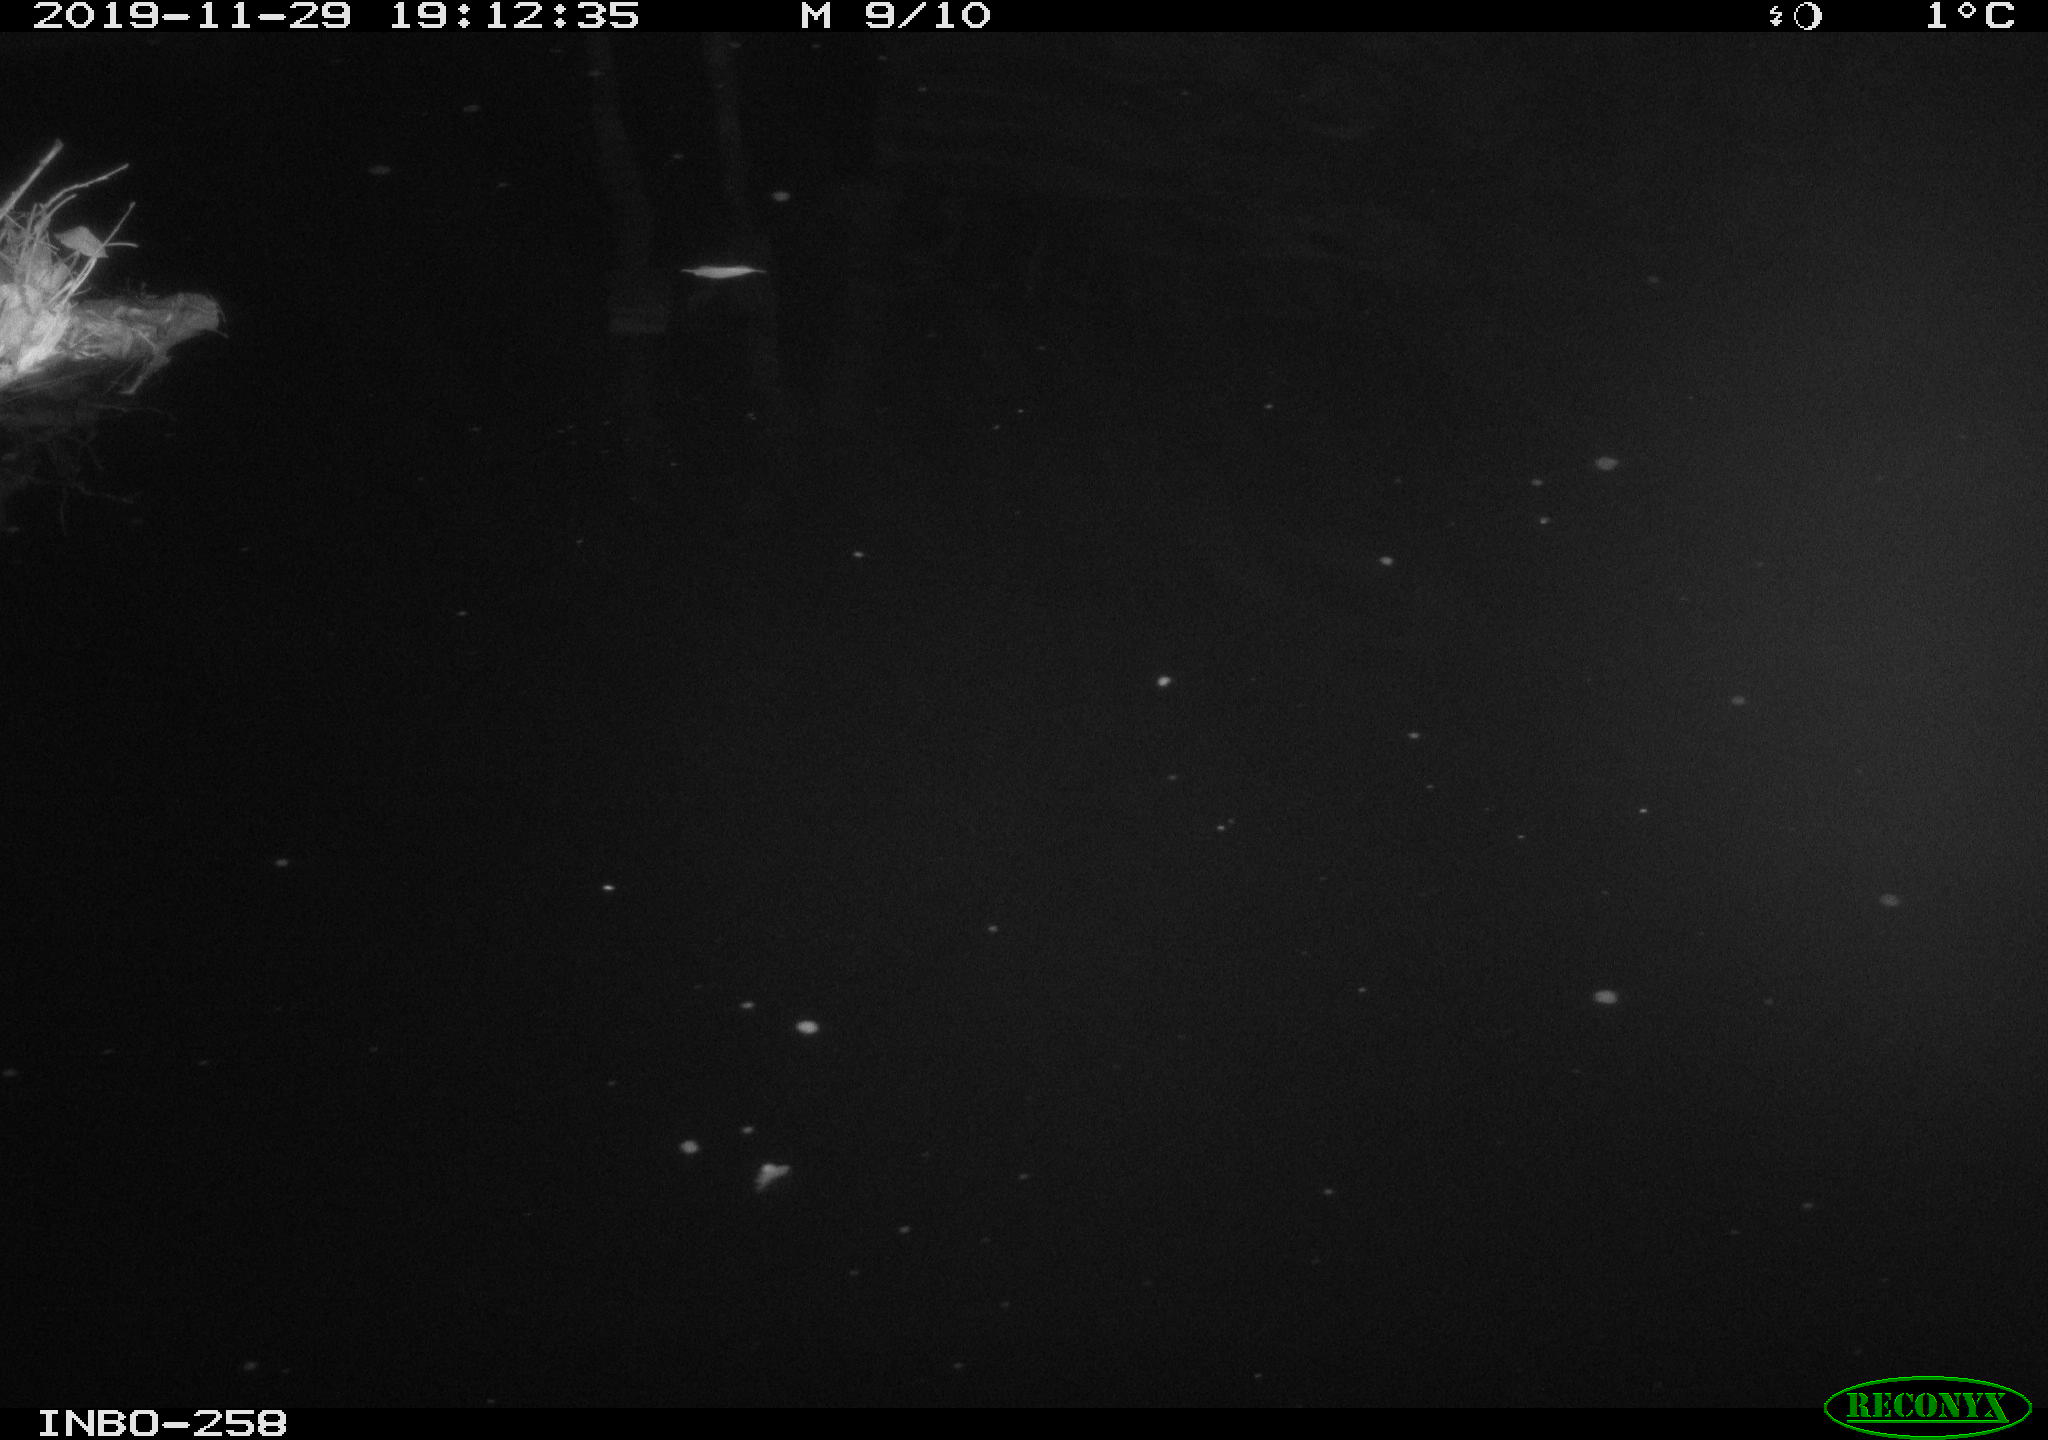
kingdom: Animalia
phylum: Chordata
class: Aves
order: Anseriformes
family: Anatidae
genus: Anas
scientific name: Anas platyrhynchos
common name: Mallard
